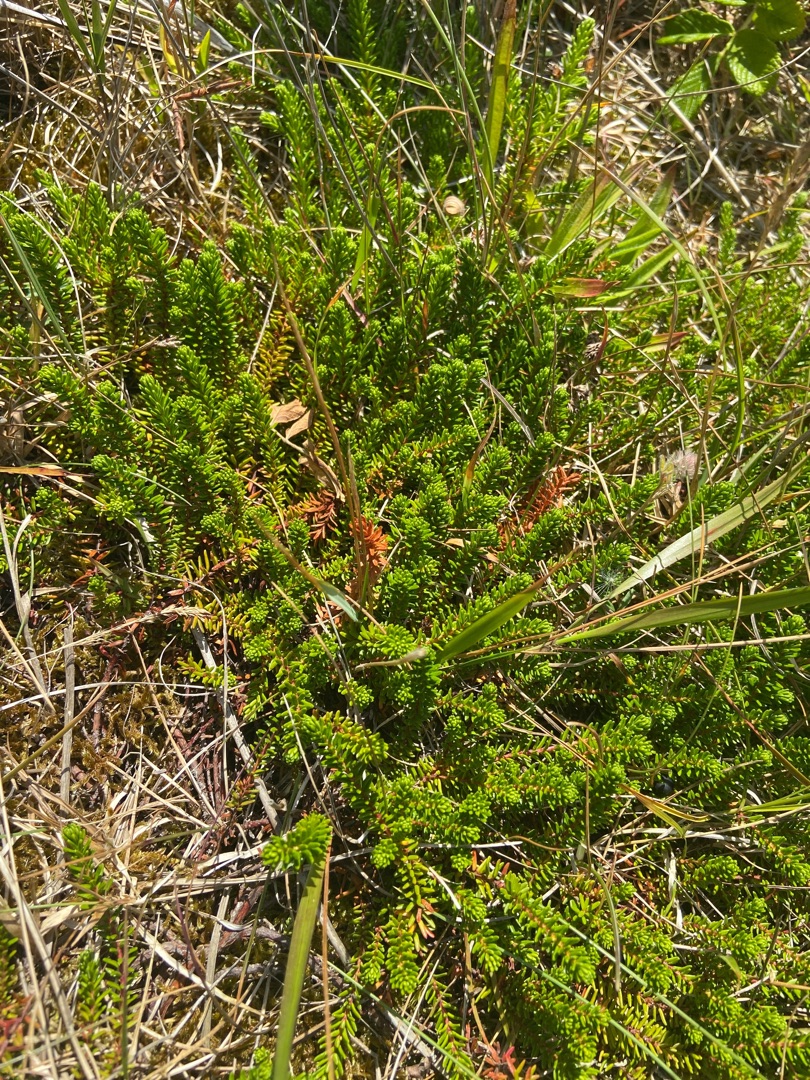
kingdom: Plantae
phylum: Tracheophyta
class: Magnoliopsida
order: Ericales
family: Ericaceae
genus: Empetrum
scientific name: Empetrum nigrum
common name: Revling
